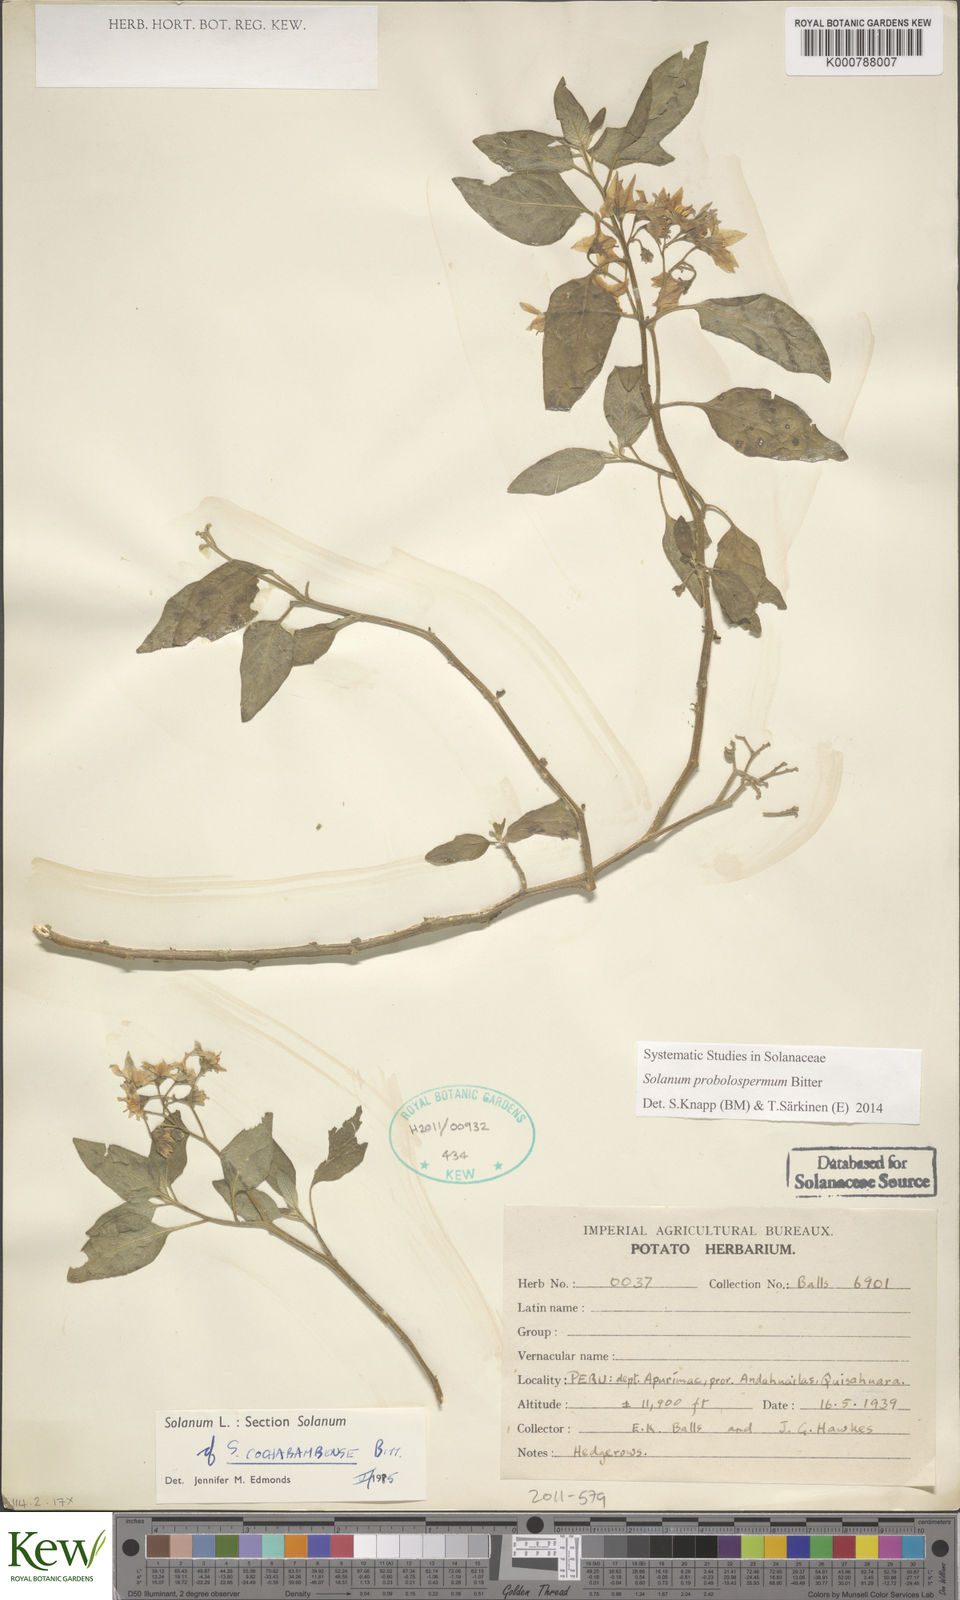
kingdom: Plantae
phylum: Tracheophyta
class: Magnoliopsida
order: Solanales
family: Solanaceae
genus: Solanum
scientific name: Solanum probolospermum
